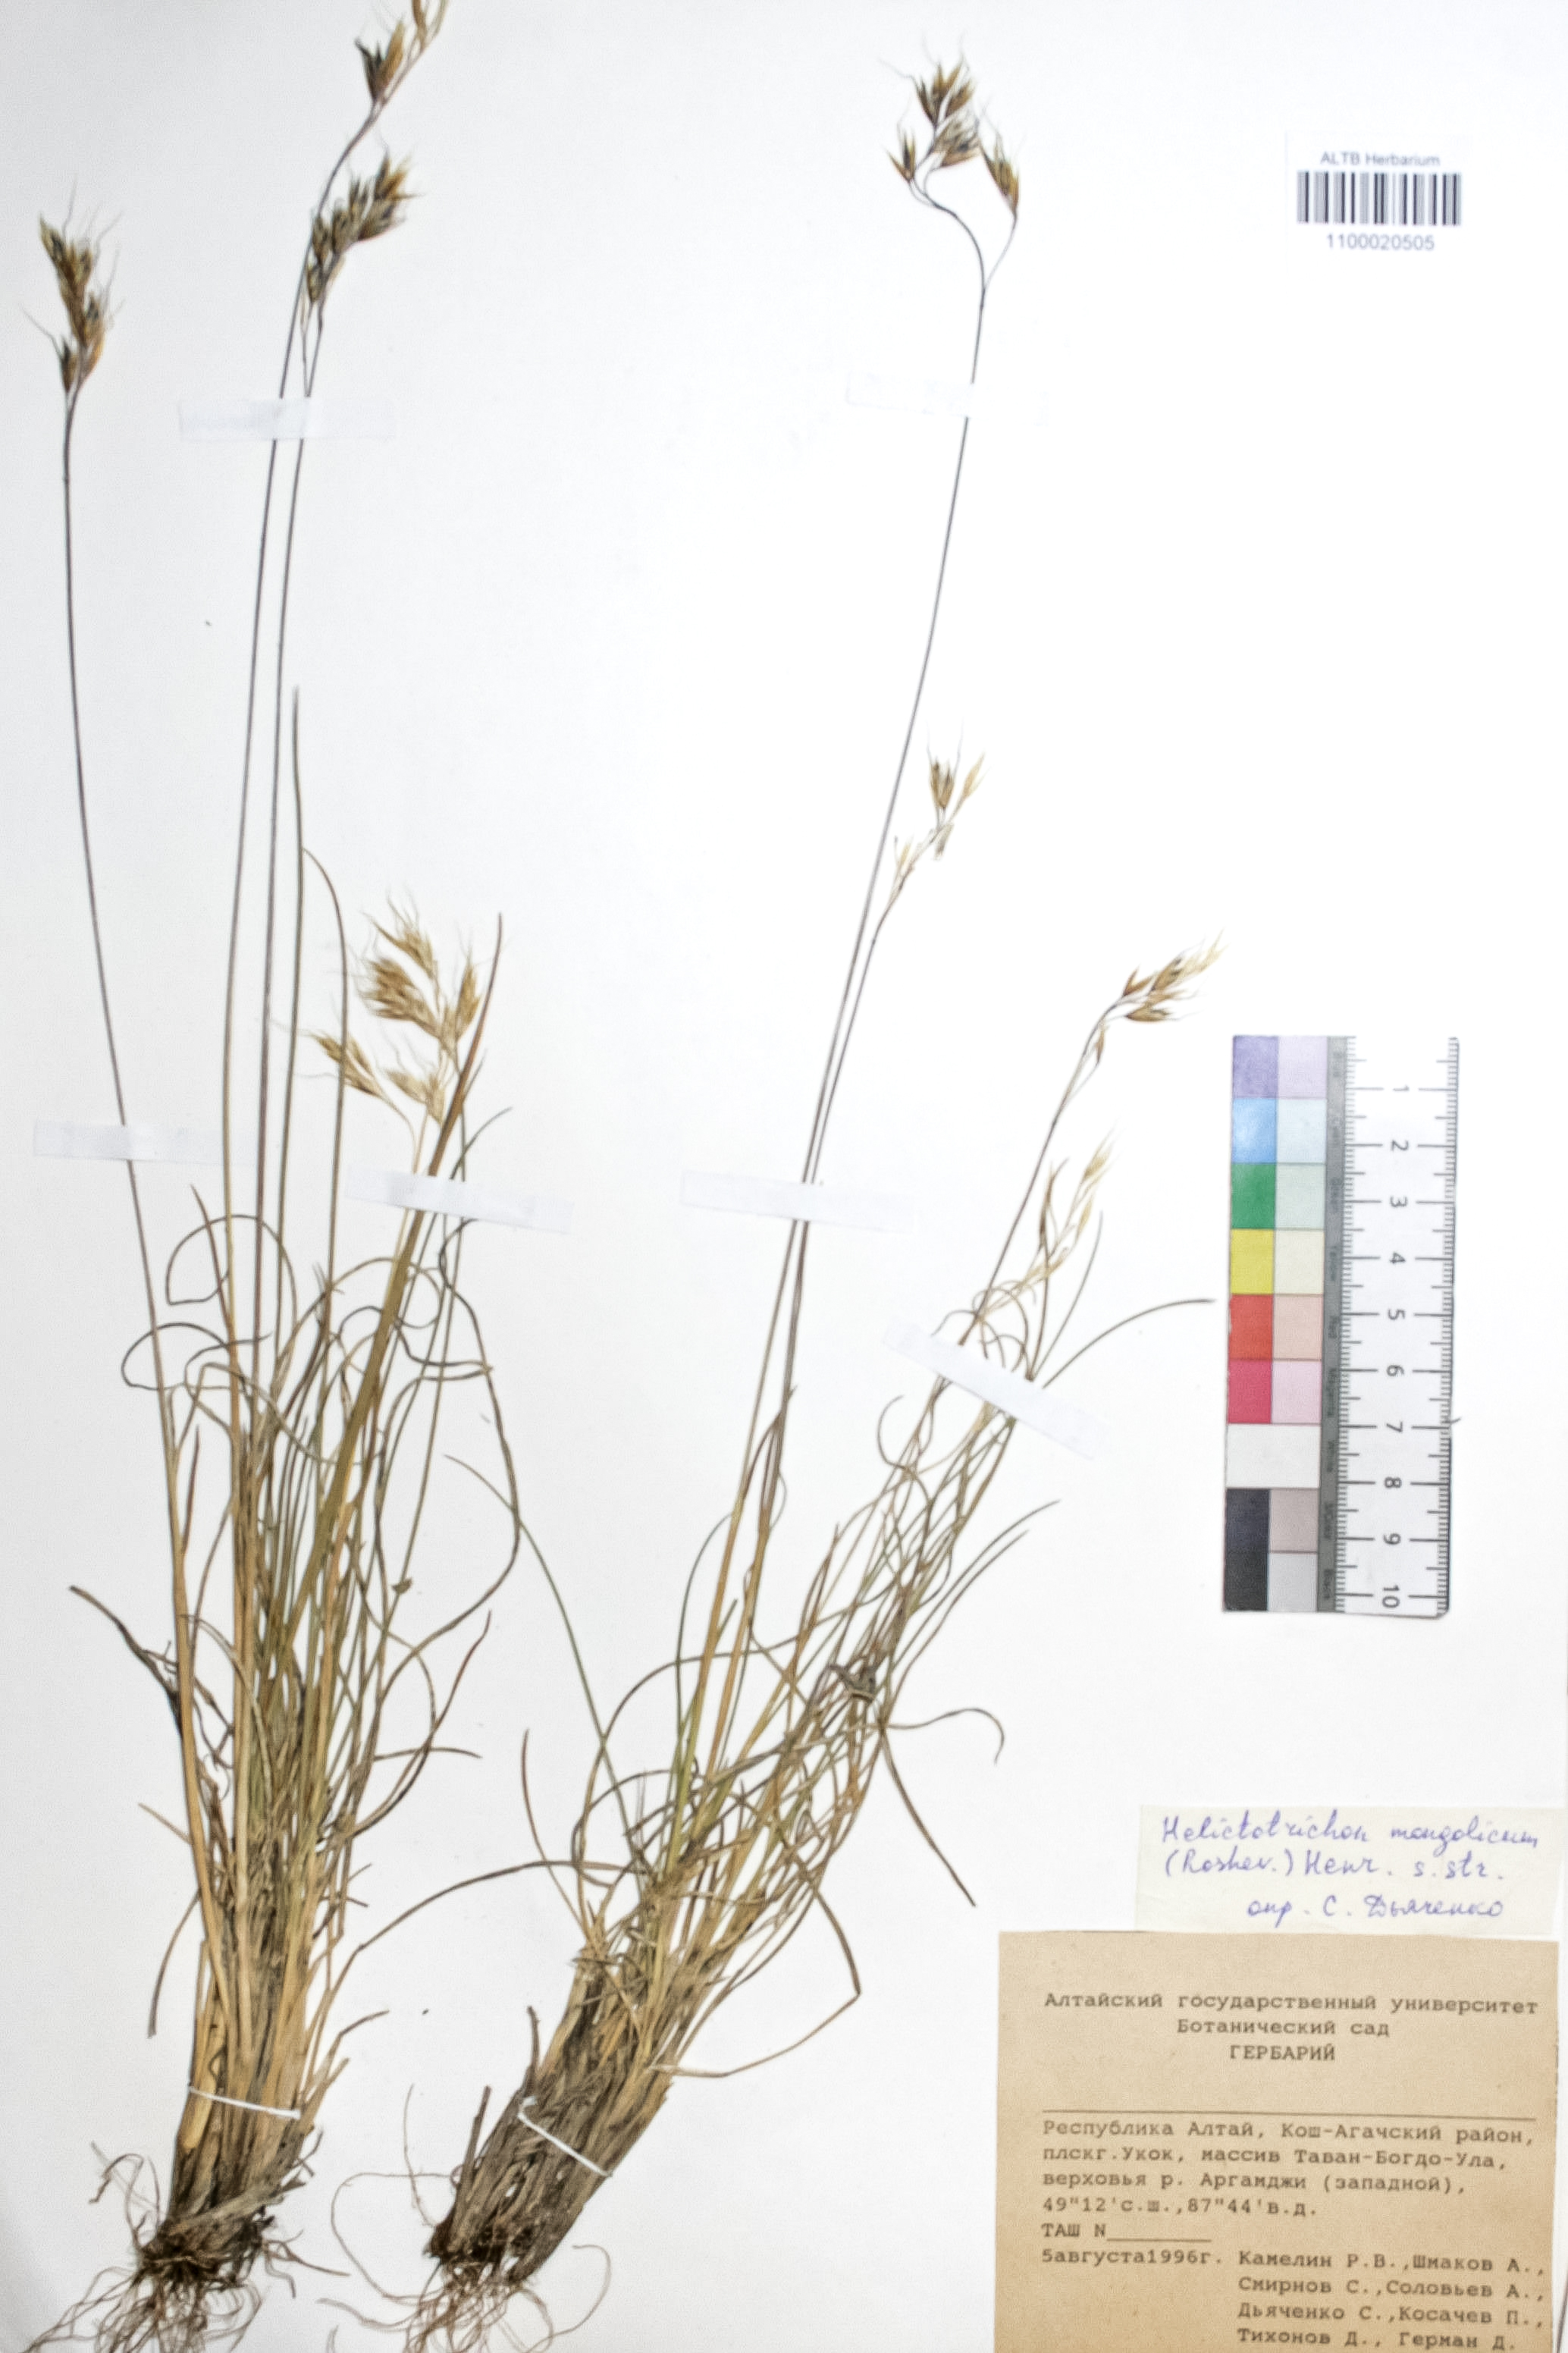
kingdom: Plantae
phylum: Tracheophyta
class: Liliopsida
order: Poales
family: Poaceae
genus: Helictotrichon
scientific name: Helictotrichon mongolicum
